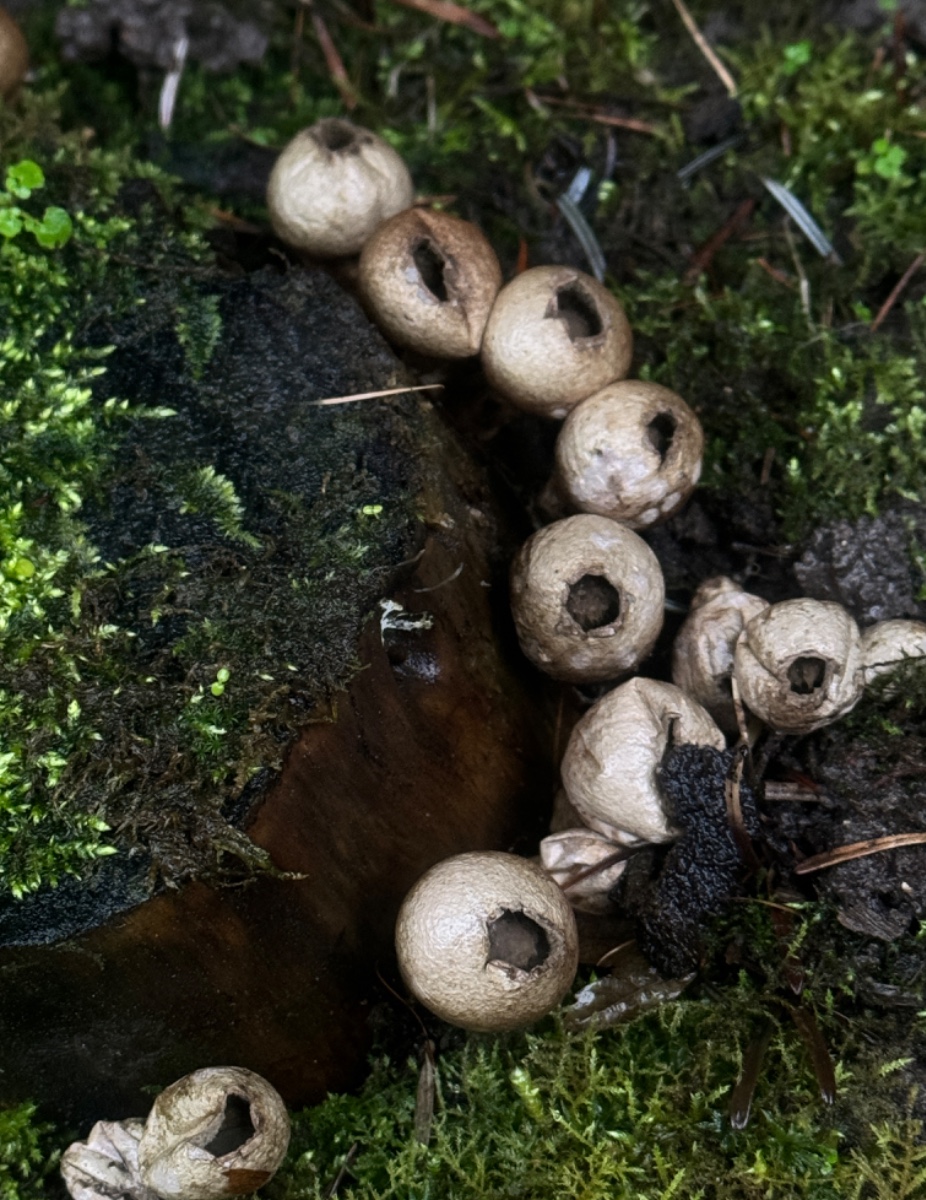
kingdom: Fungi
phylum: Basidiomycota
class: Agaricomycetes
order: Agaricales
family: Lycoperdaceae
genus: Apioperdon
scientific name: Apioperdon pyriforme
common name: pære-støvbold
